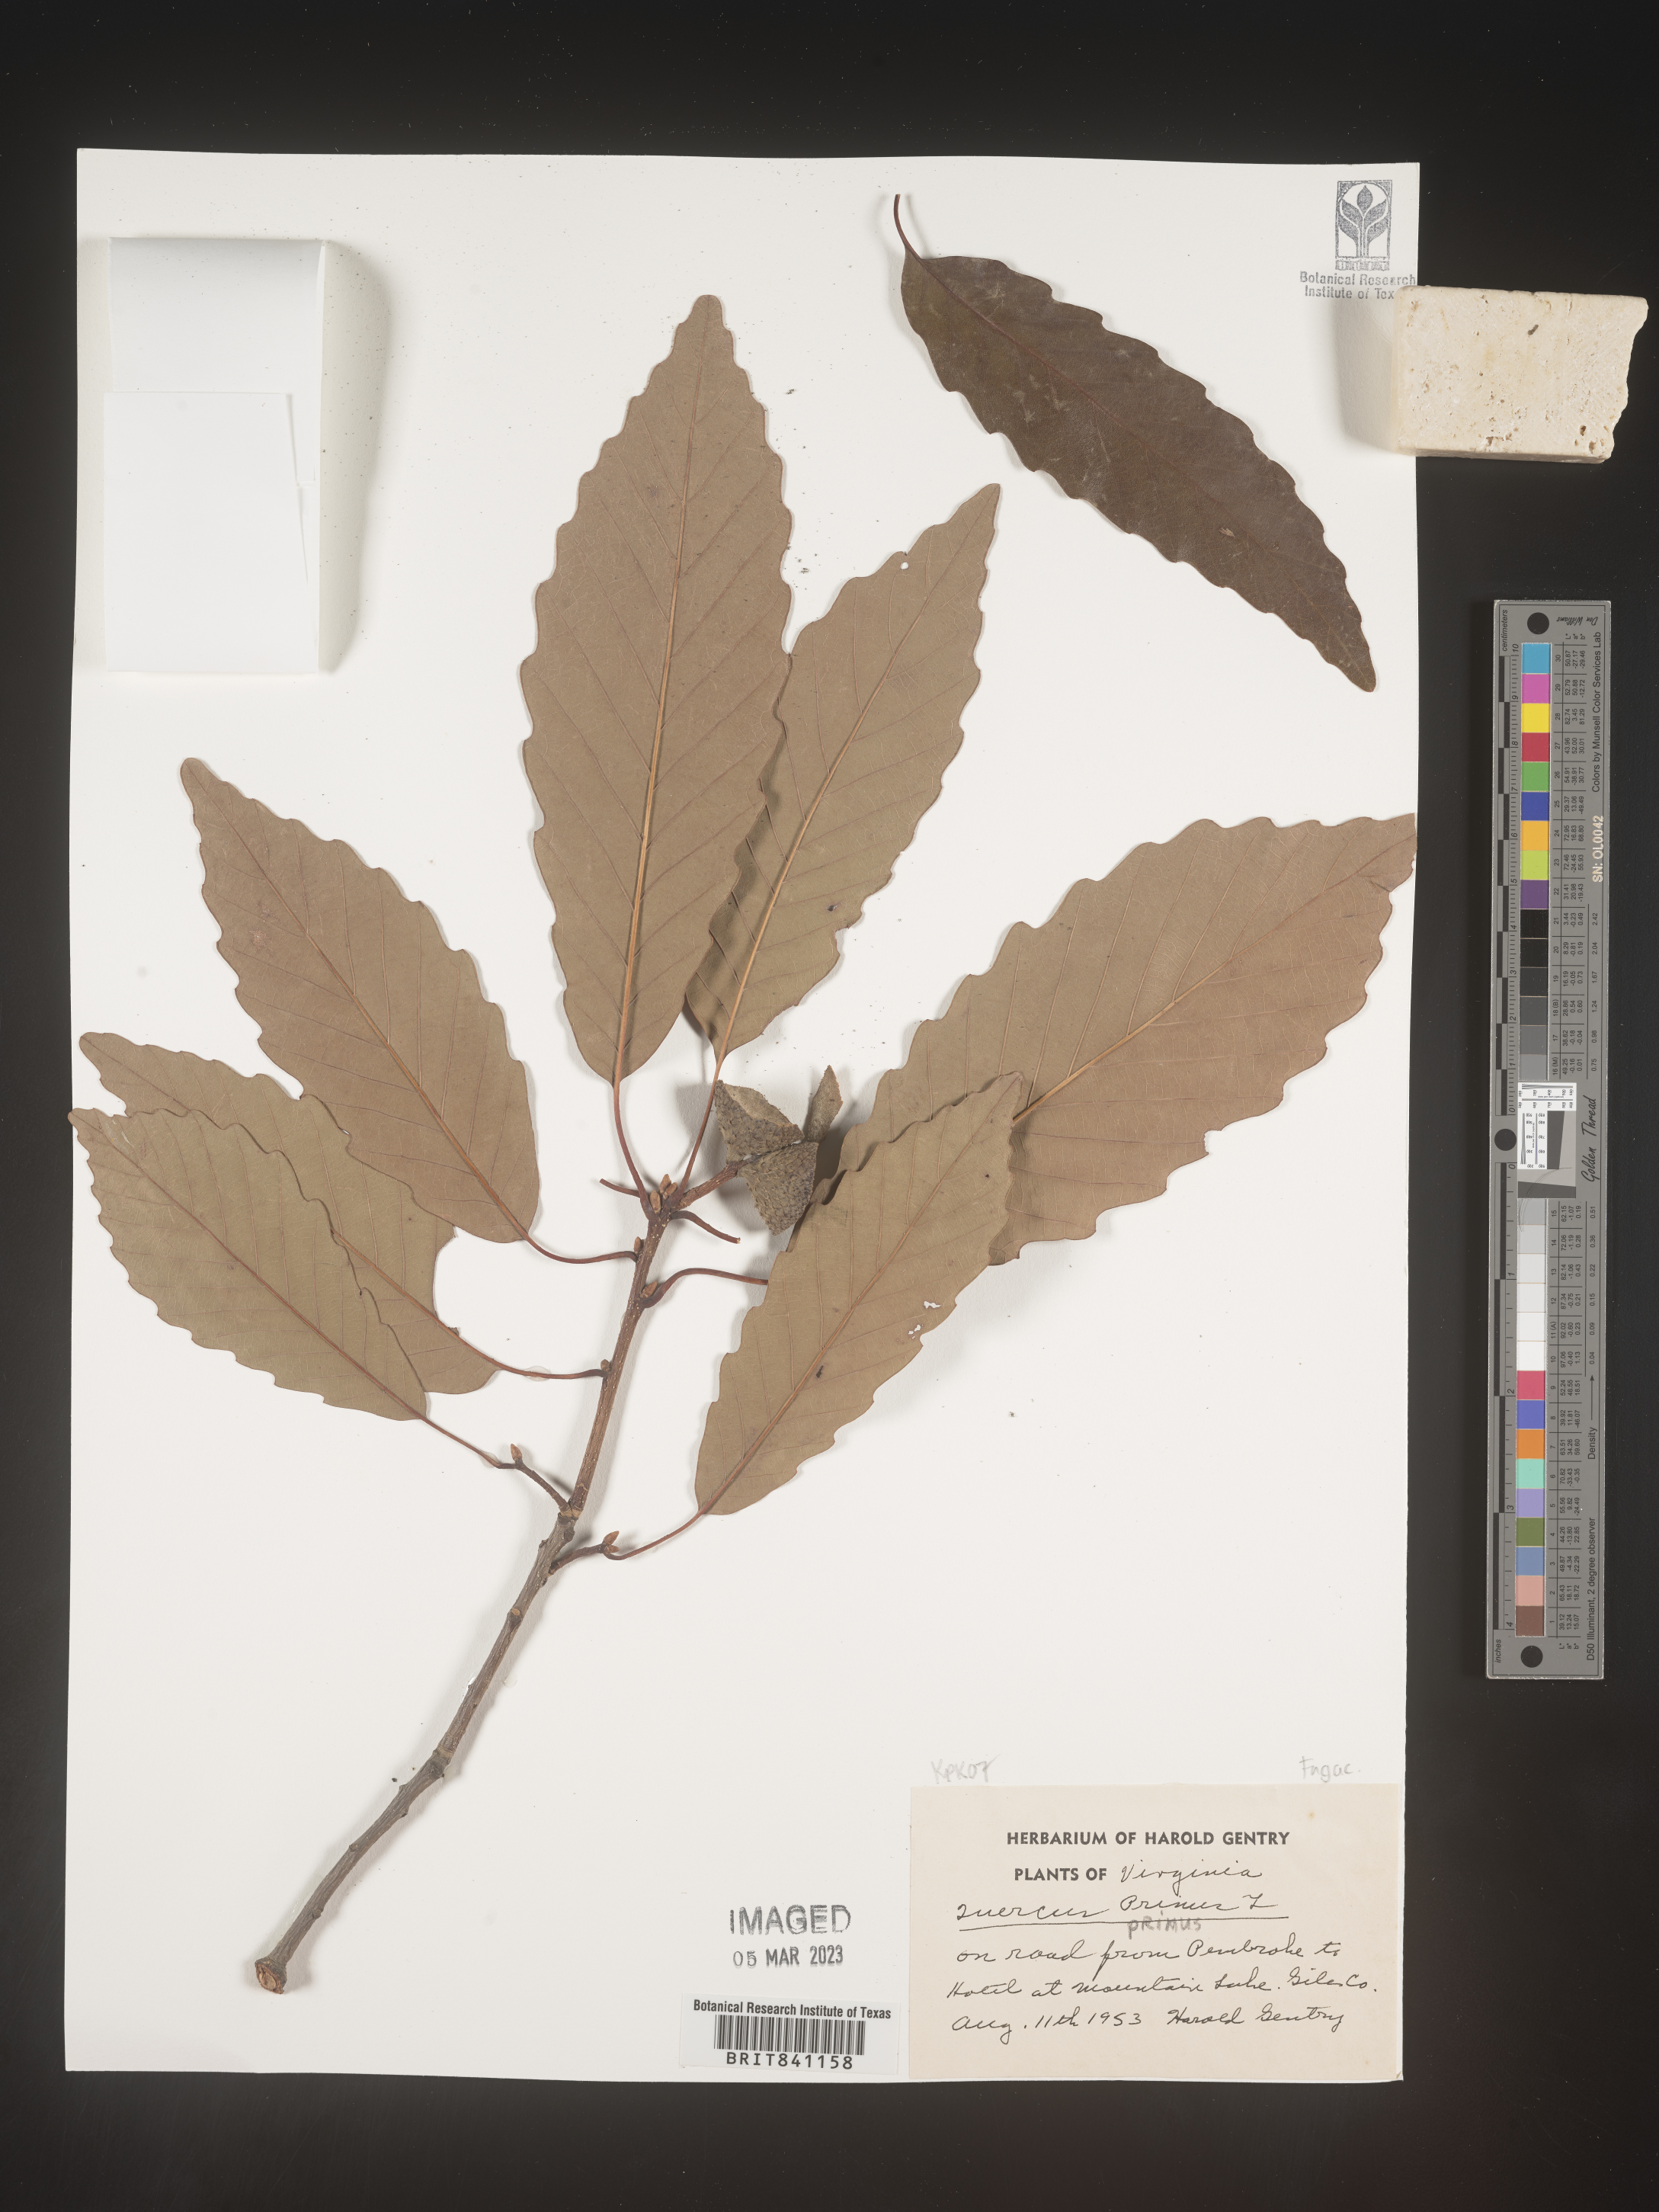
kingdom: Plantae
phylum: Tracheophyta
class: Magnoliopsida
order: Fagales
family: Fagaceae
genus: Quercus
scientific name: Quercus michauxii
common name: Swamp chestnut oak
